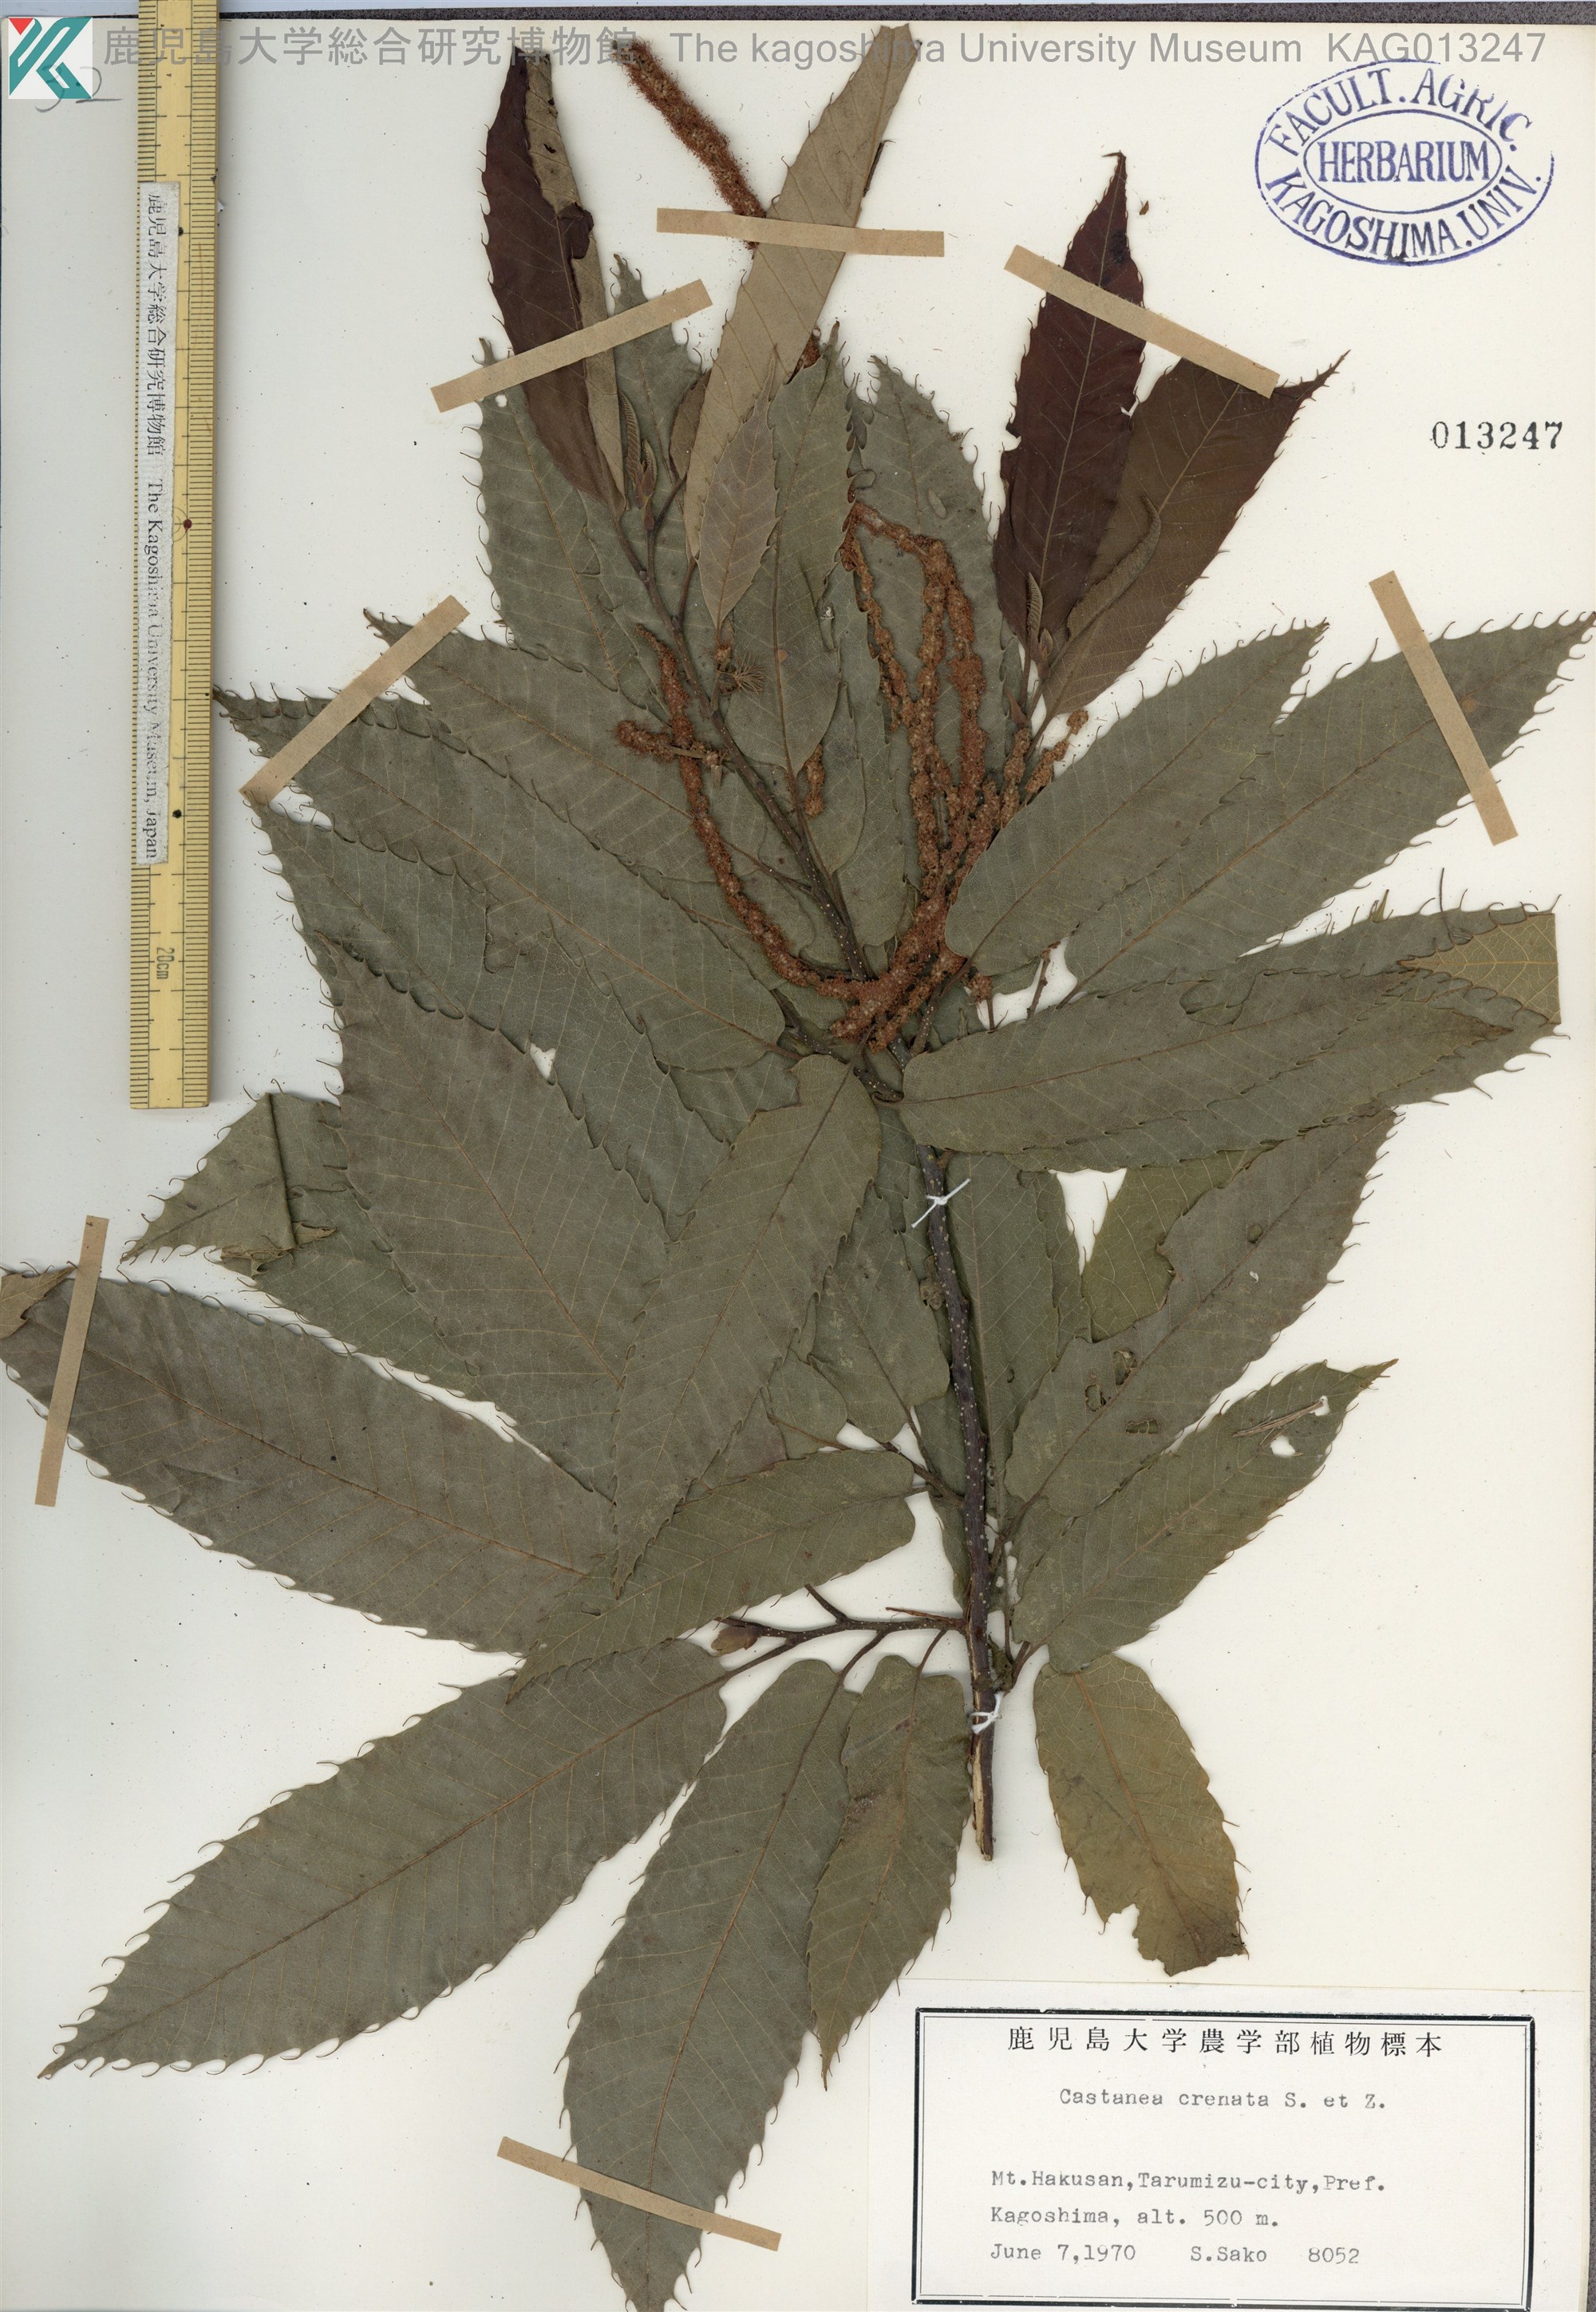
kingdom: Plantae
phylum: Tracheophyta
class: Magnoliopsida
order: Fagales
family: Fagaceae
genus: Castanea
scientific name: Castanea crenata
